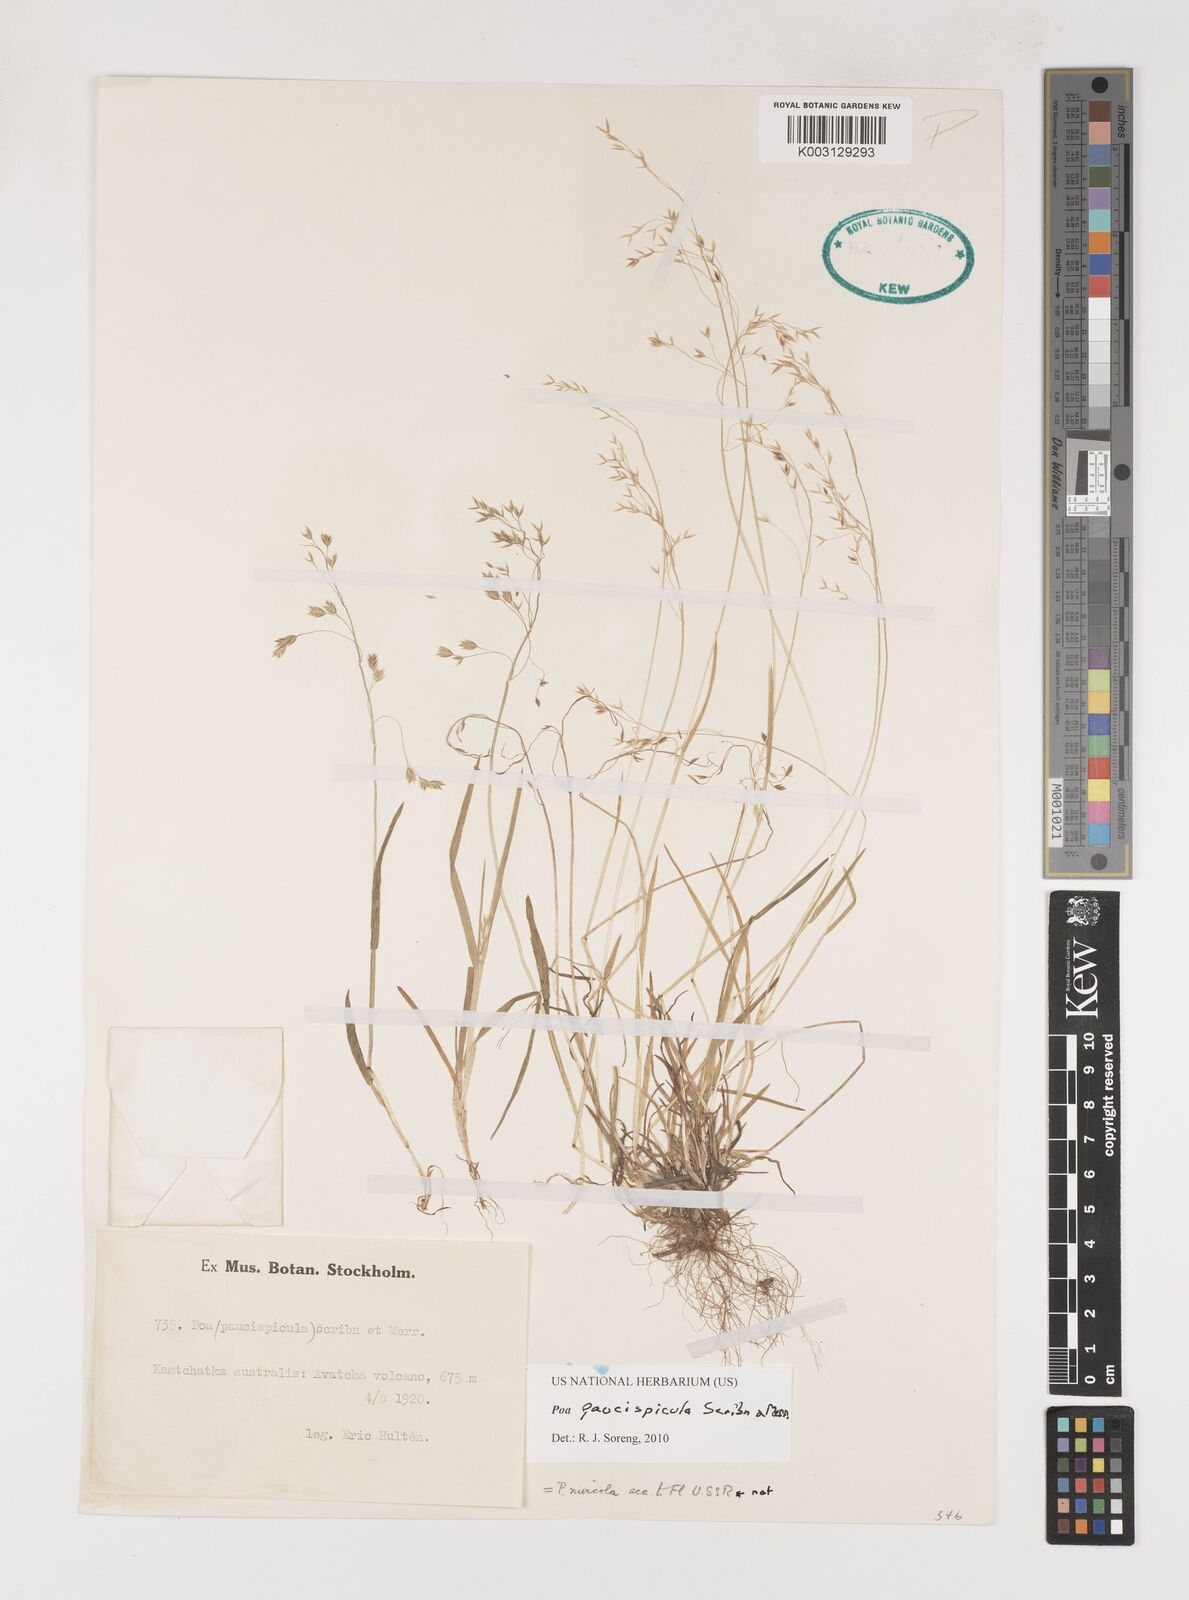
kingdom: Plantae
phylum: Tracheophyta
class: Liliopsida
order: Poales
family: Poaceae
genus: Poa
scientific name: Poa paucispicula
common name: Alaska bluegrass
